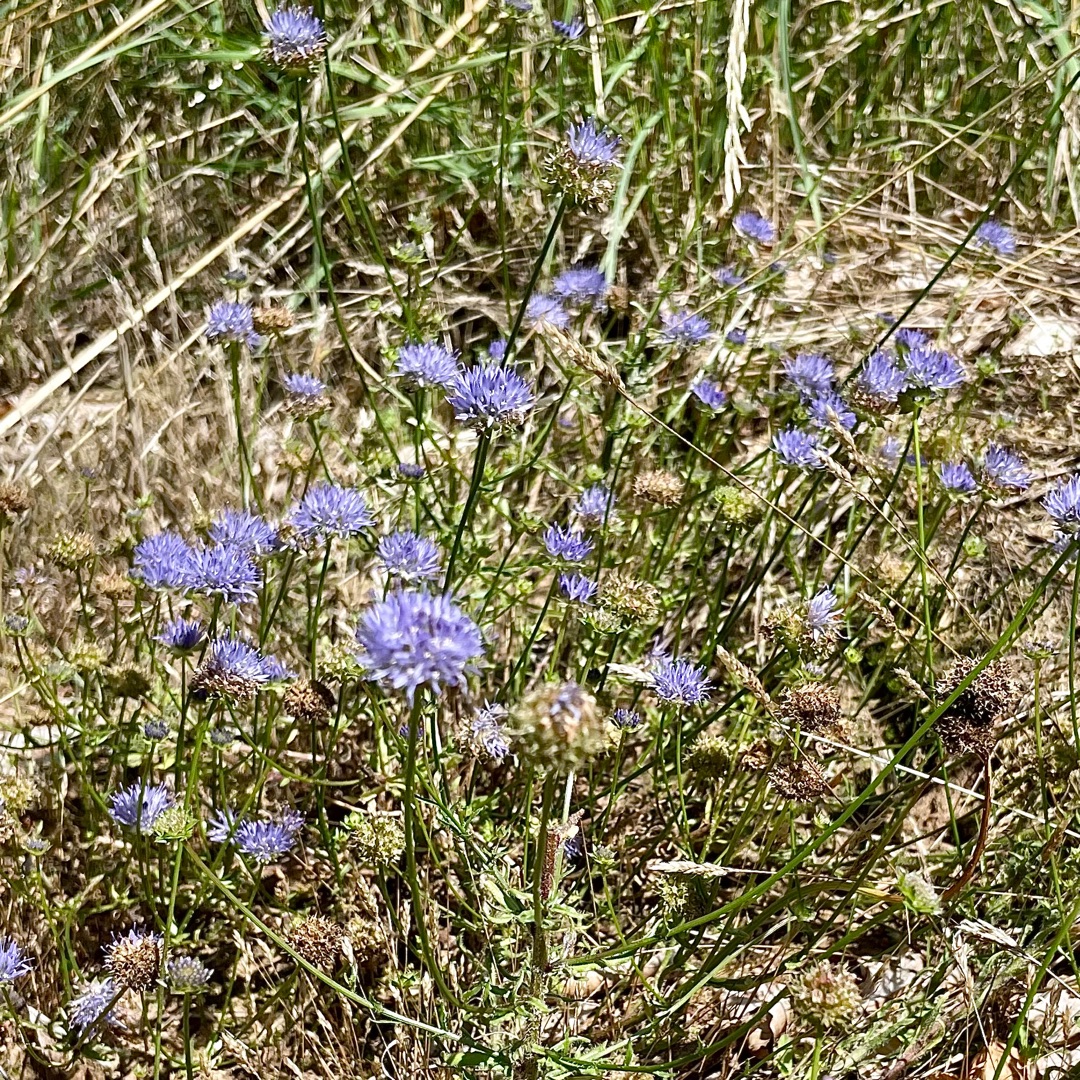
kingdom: Plantae
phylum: Tracheophyta
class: Magnoliopsida
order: Asterales
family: Campanulaceae
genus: Jasione
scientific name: Jasione montana
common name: Blåmunke
